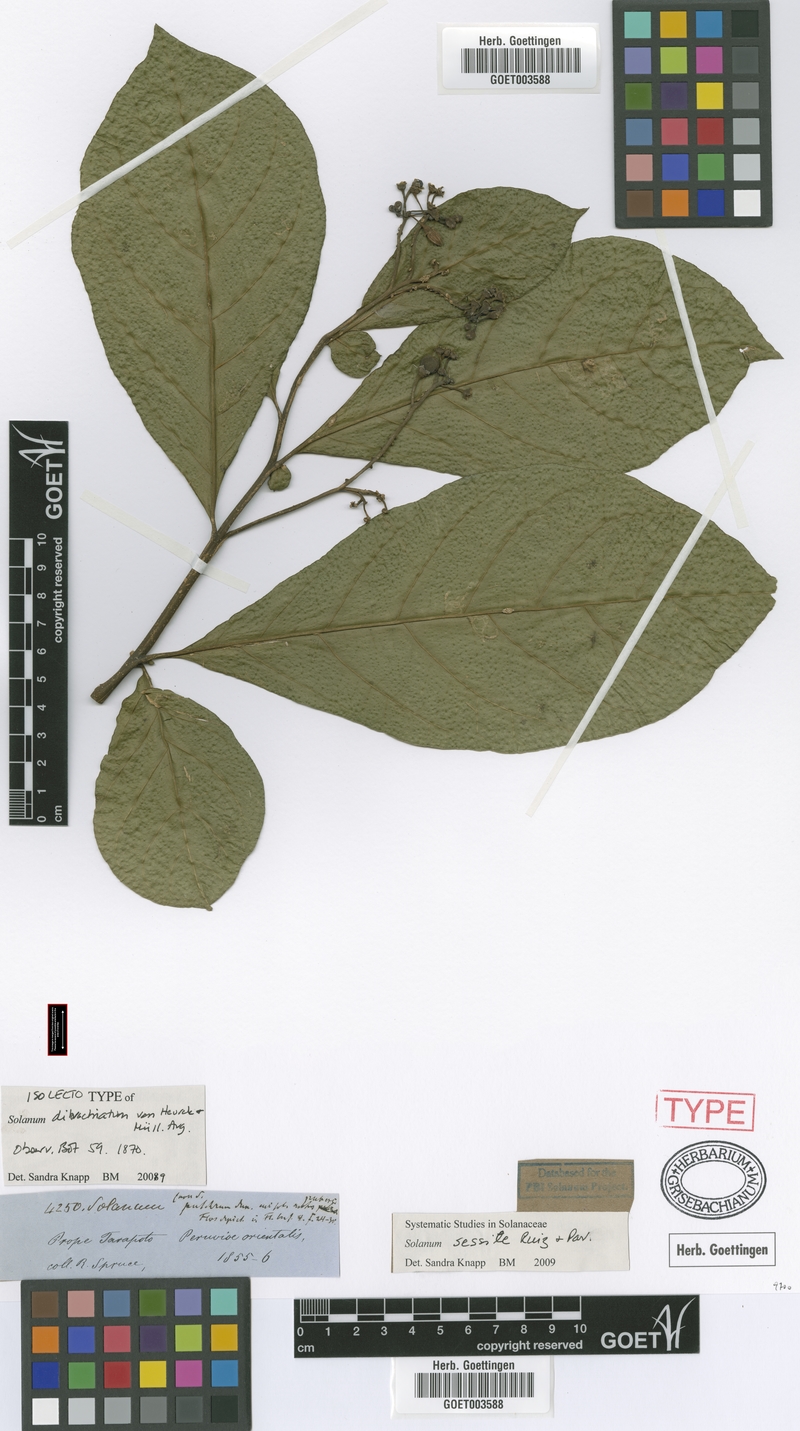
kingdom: Plantae
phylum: Tracheophyta
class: Magnoliopsida
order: Solanales
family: Solanaceae
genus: Solanum
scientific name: Solanum sessile
